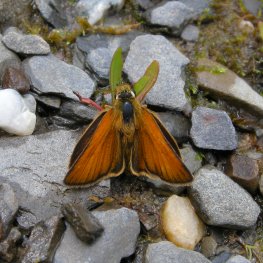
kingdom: Animalia
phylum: Arthropoda
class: Insecta
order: Lepidoptera
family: Hesperiidae
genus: Thymelicus
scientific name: Thymelicus lineola
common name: European Skipper
